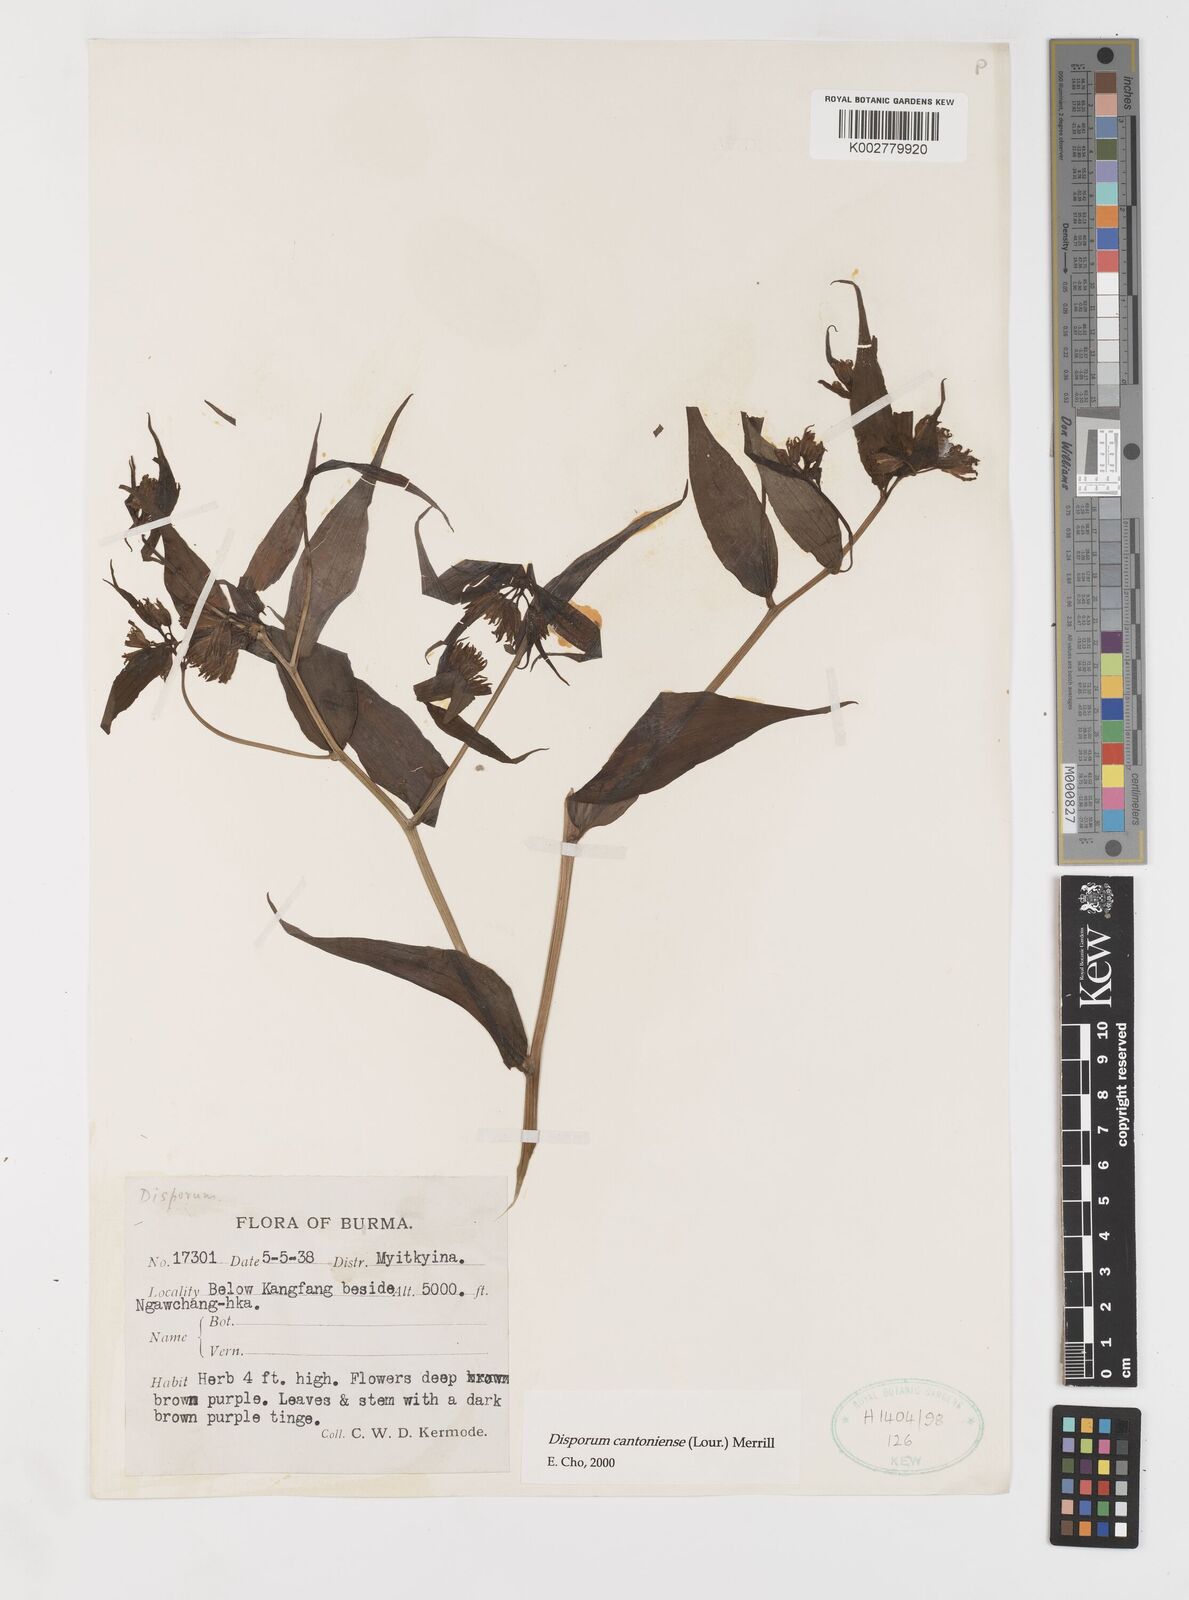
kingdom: Plantae
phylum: Tracheophyta
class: Liliopsida
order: Liliales
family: Colchicaceae
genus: Disporum
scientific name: Disporum cantoniense
